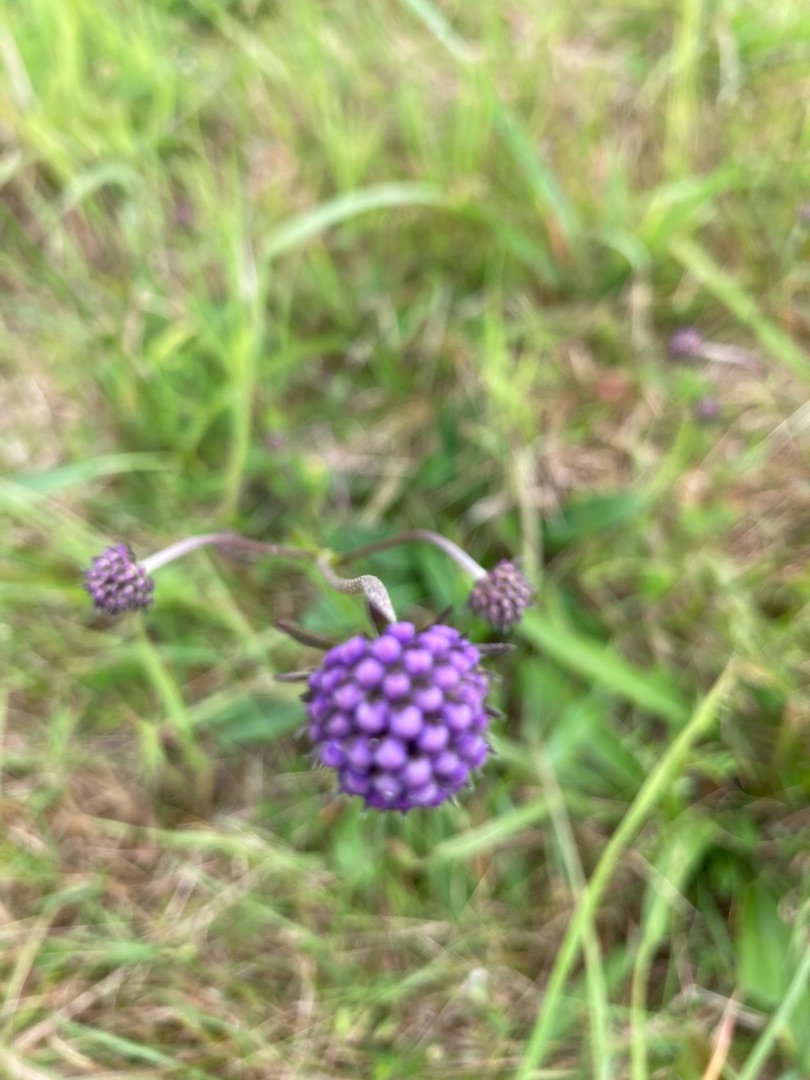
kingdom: Plantae
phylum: Tracheophyta
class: Magnoliopsida
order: Dipsacales
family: Caprifoliaceae
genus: Succisa
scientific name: Succisa pratensis
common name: Djævelsbid
